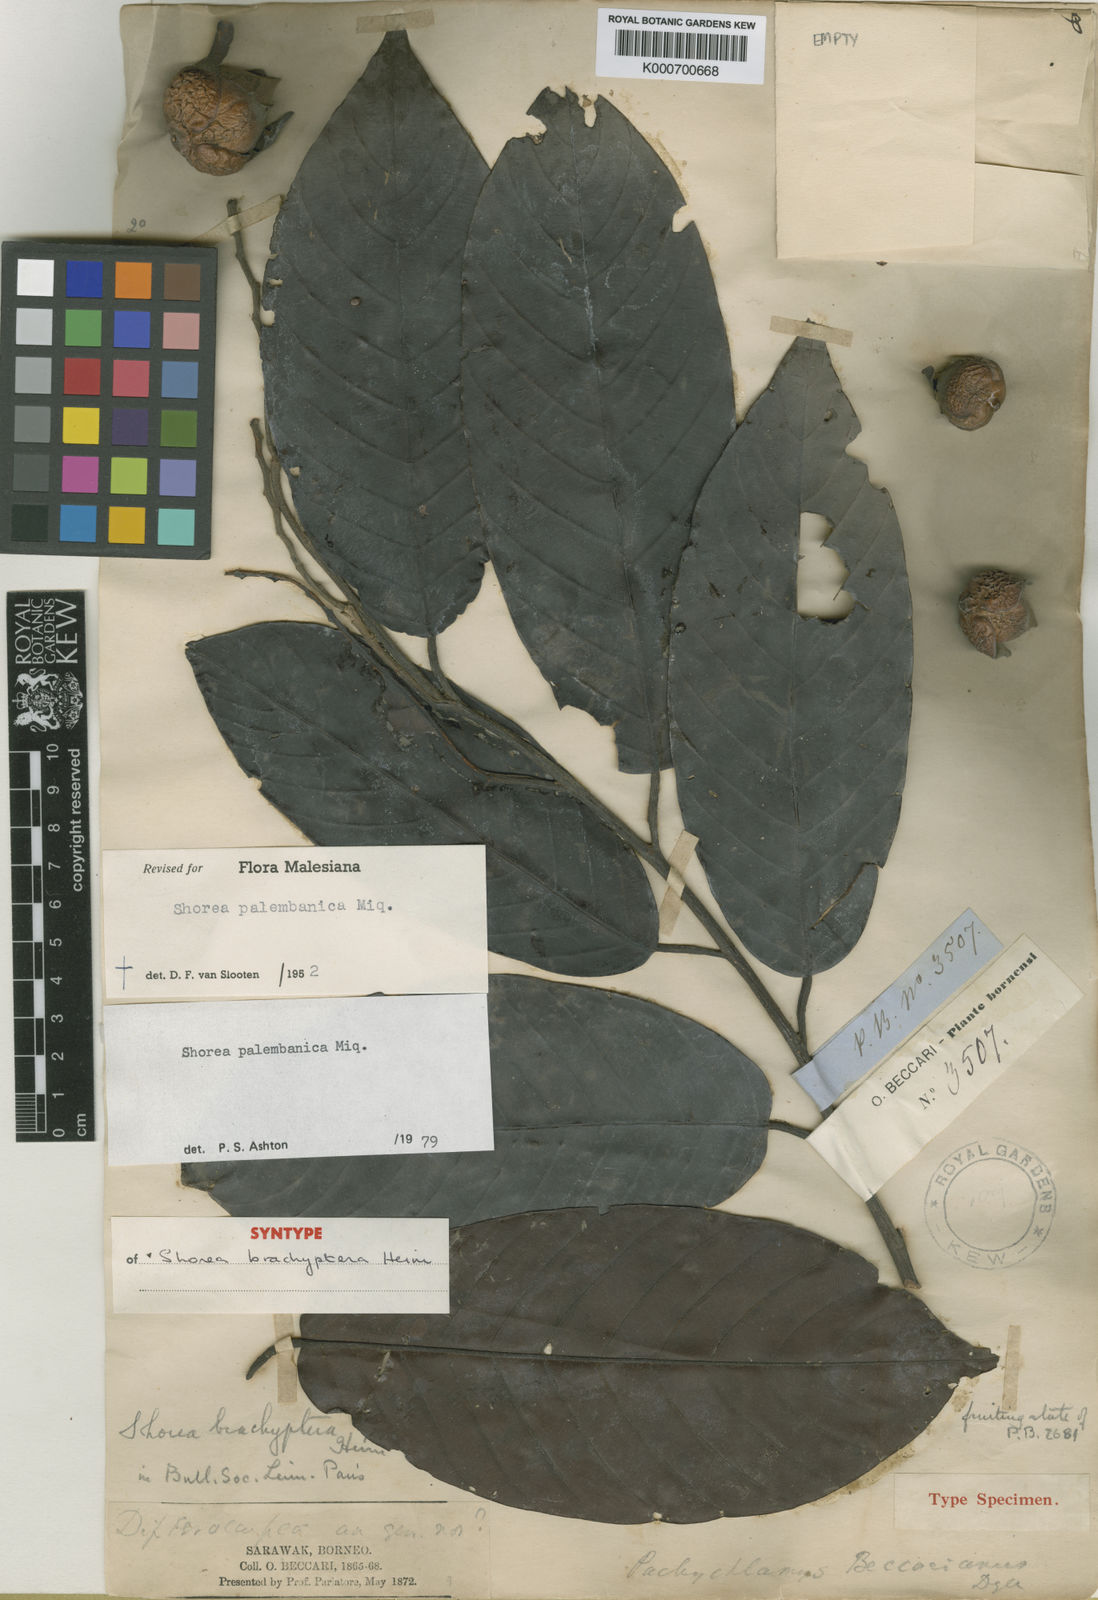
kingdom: Plantae
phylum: Tracheophyta
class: Magnoliopsida
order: Malvales
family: Dipterocarpaceae
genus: Shorea
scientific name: Shorea palembanica
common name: Light red meranti
